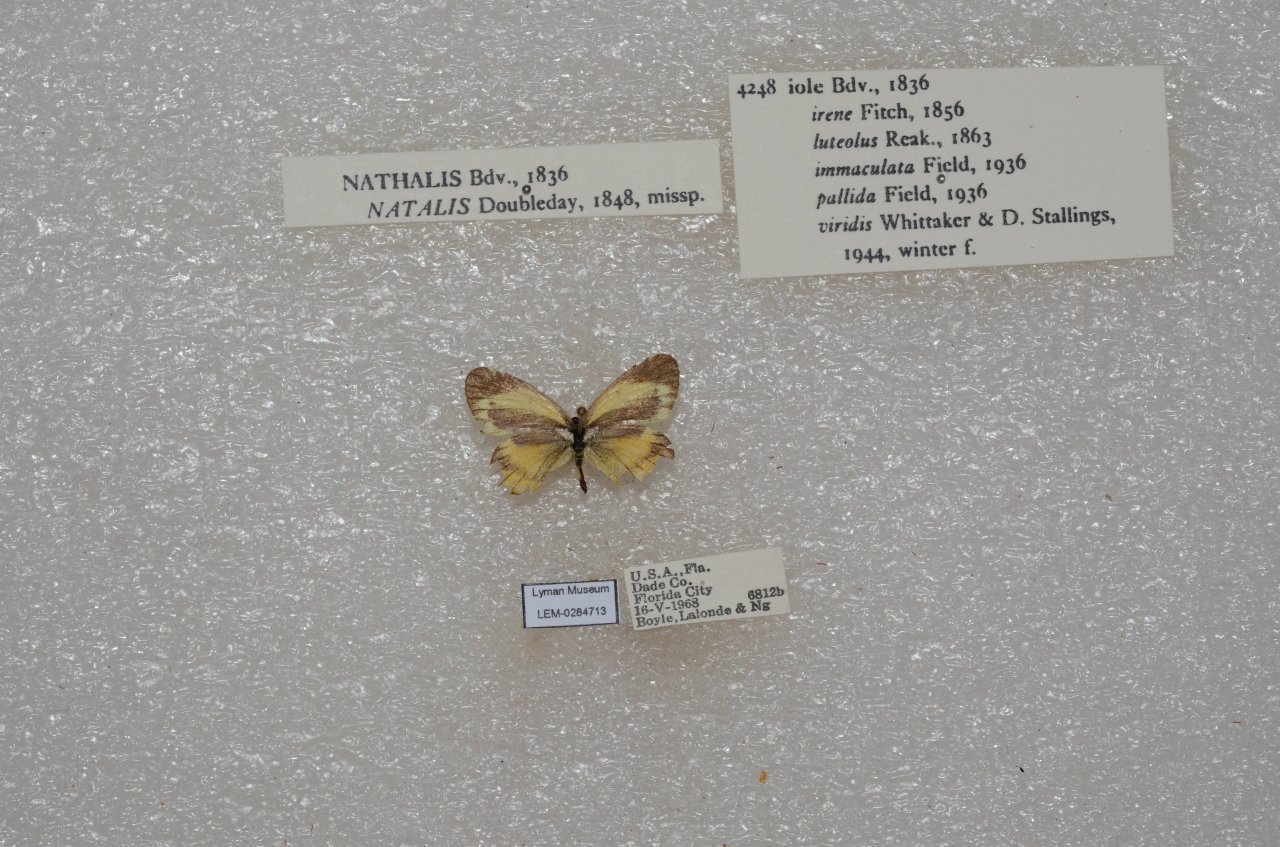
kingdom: Animalia
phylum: Arthropoda
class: Insecta
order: Lepidoptera
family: Pieridae
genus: Nathalis
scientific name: Nathalis iole
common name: Dainty Sulphur
